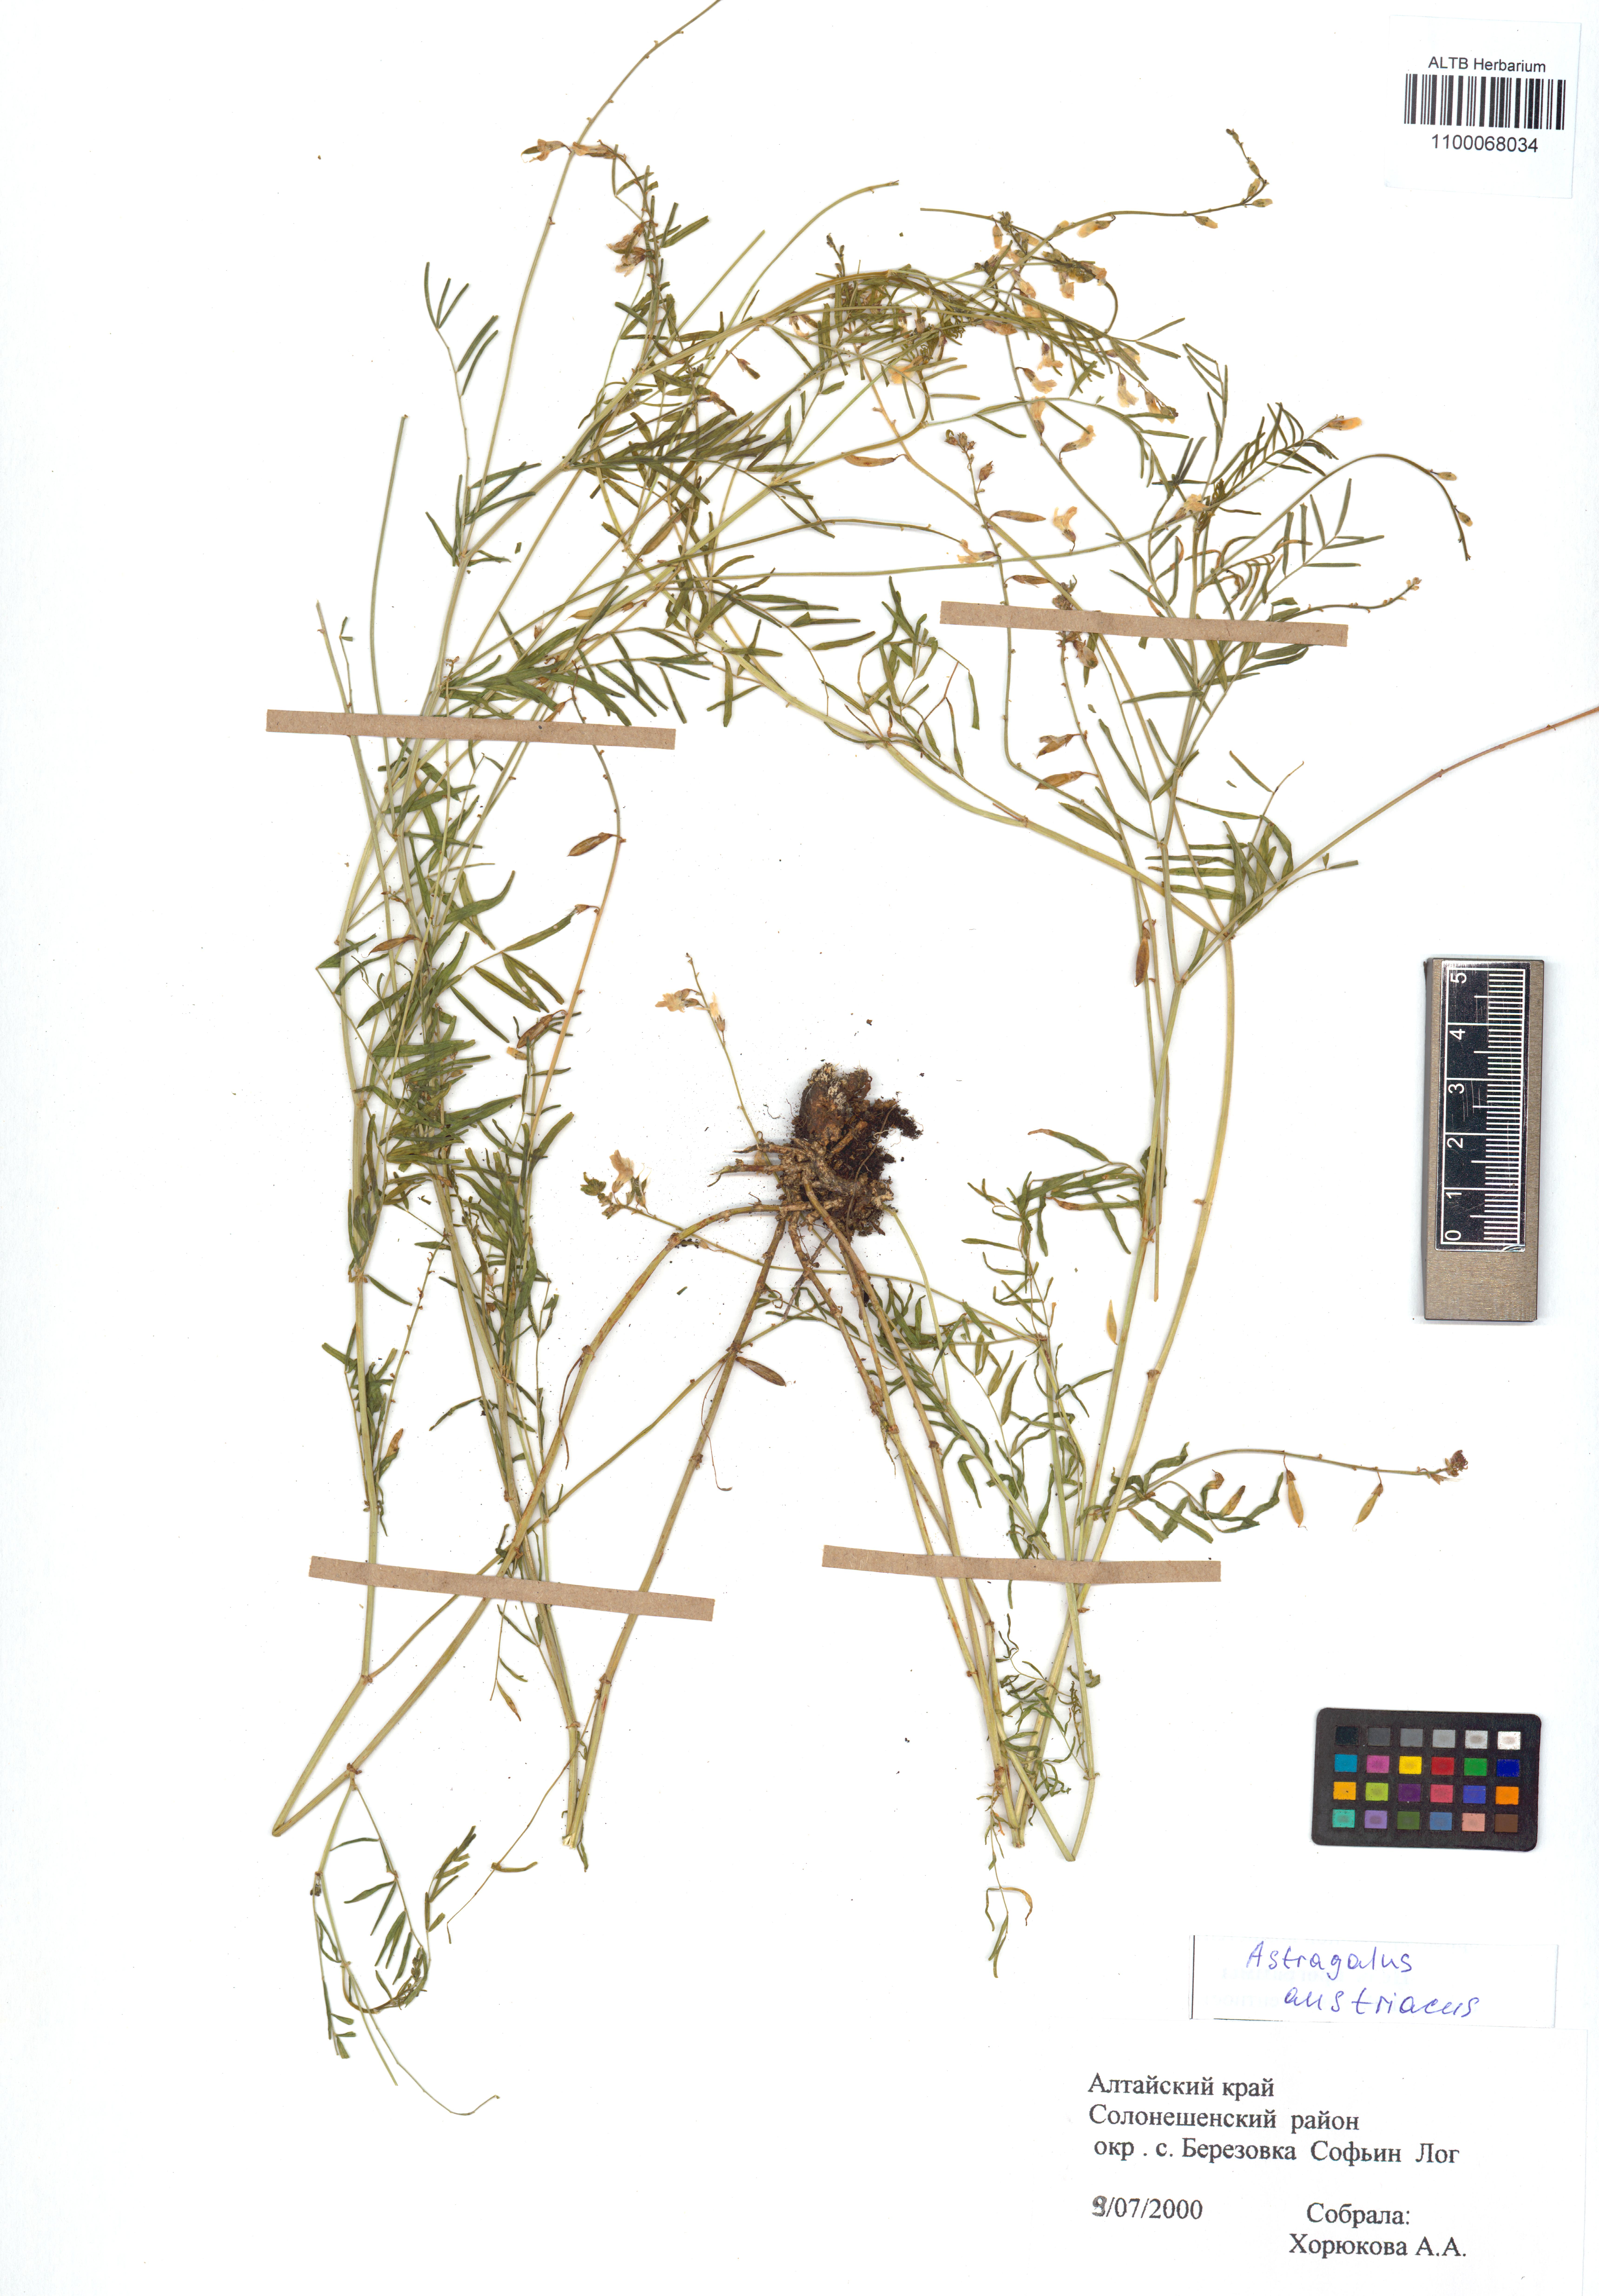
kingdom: Plantae
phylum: Tracheophyta
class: Magnoliopsida
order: Fabales
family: Fabaceae
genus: Astragalus
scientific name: Astragalus austriacus
